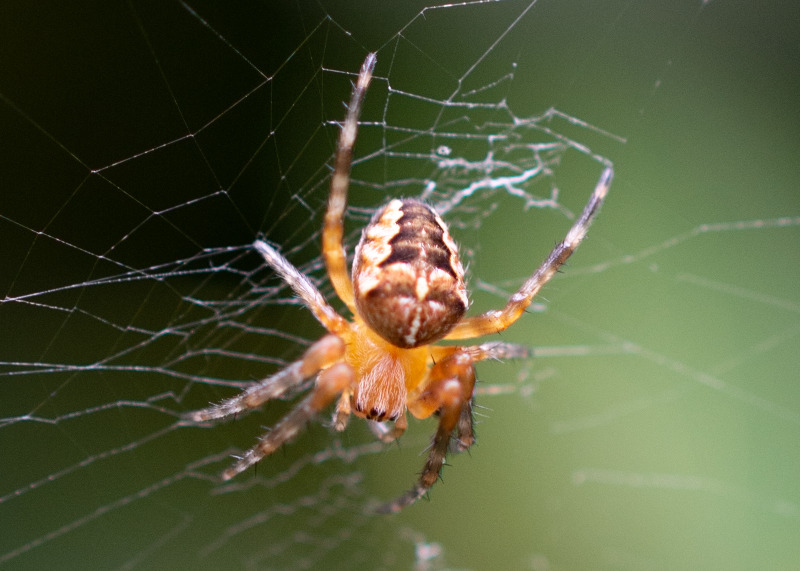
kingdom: Animalia
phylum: Arthropoda
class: Arachnida
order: Araneae
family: Araneidae
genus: Araneus
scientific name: Araneus diadematus
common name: Korsedderkop
